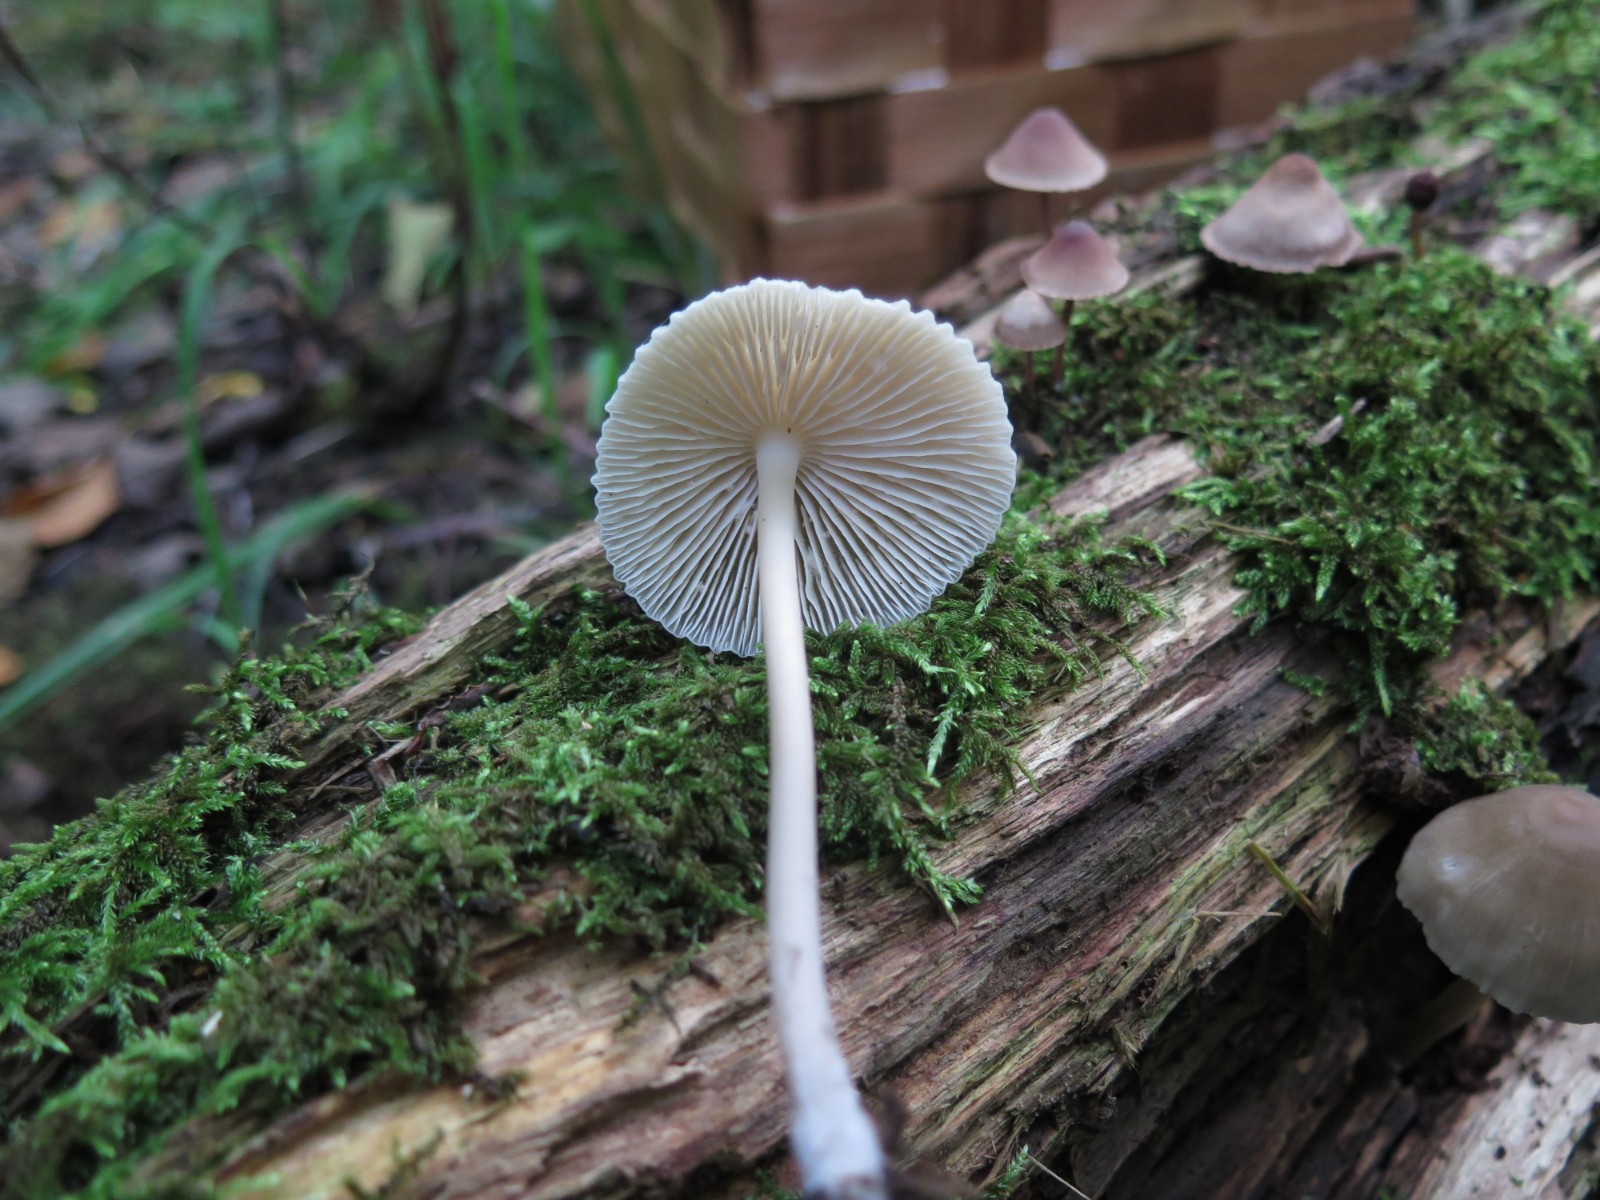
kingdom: Fungi
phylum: Basidiomycota
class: Agaricomycetes
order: Agaricales
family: Mycenaceae
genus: Mycena
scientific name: Mycena galericulata
